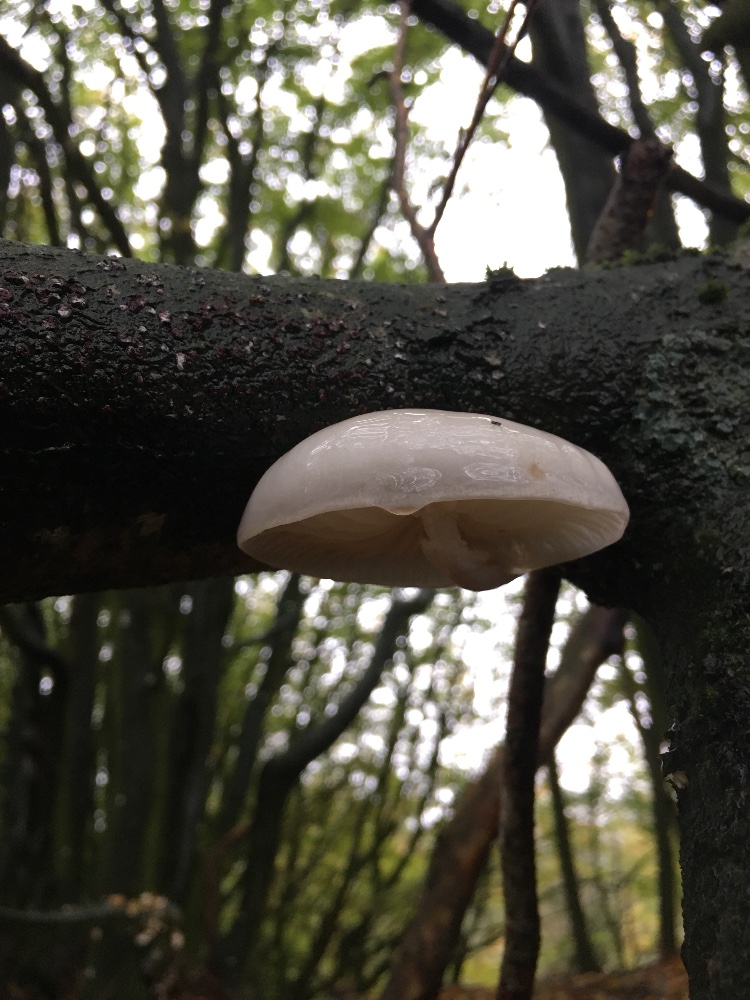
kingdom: Fungi
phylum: Basidiomycota
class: Agaricomycetes
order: Agaricales
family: Physalacriaceae
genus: Mucidula
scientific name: Mucidula mucida
